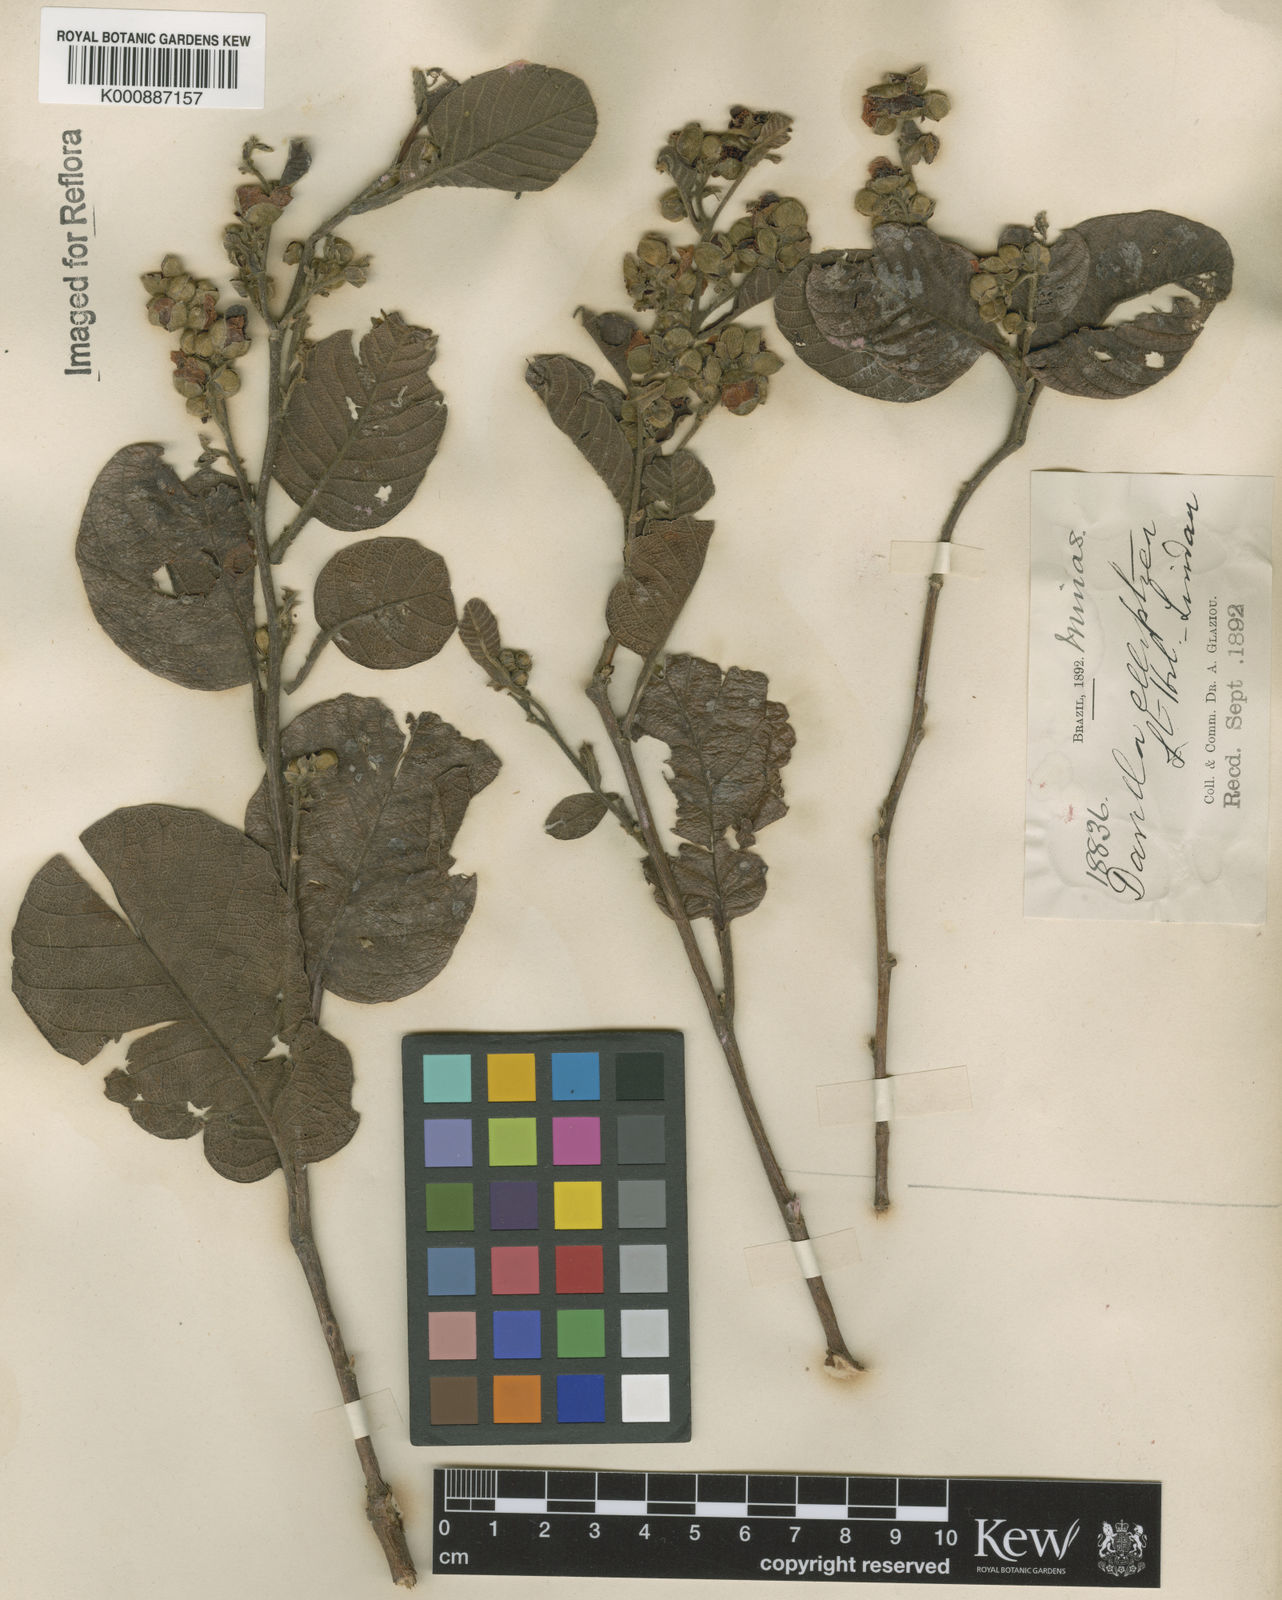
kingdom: Plantae
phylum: Tracheophyta
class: Magnoliopsida
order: Dilleniales
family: Dilleniaceae
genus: Davilla
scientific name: Davilla elliptica
